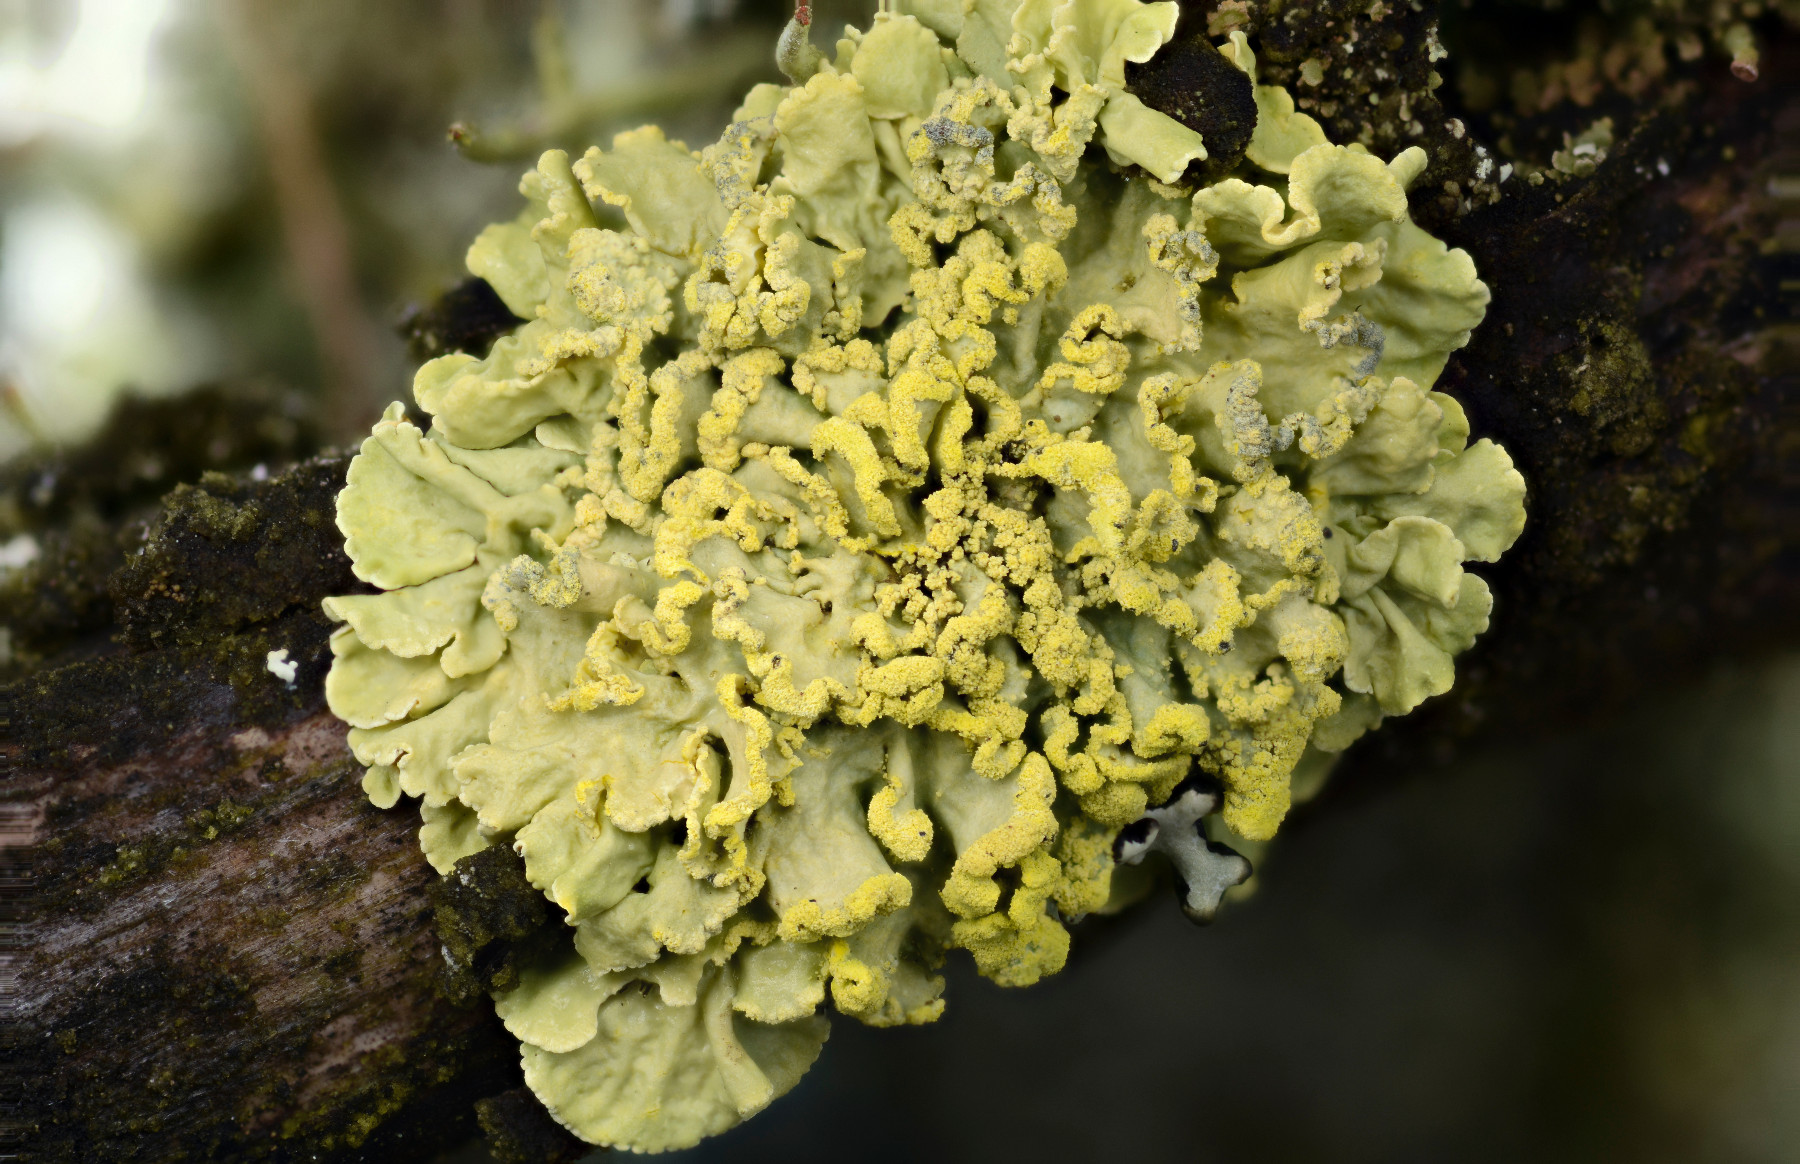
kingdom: Fungi
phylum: Ascomycota
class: Lecanoromycetes
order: Lecanorales
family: Parmeliaceae
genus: Vulpicida
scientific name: Vulpicida pinastri
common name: gul kruslav
